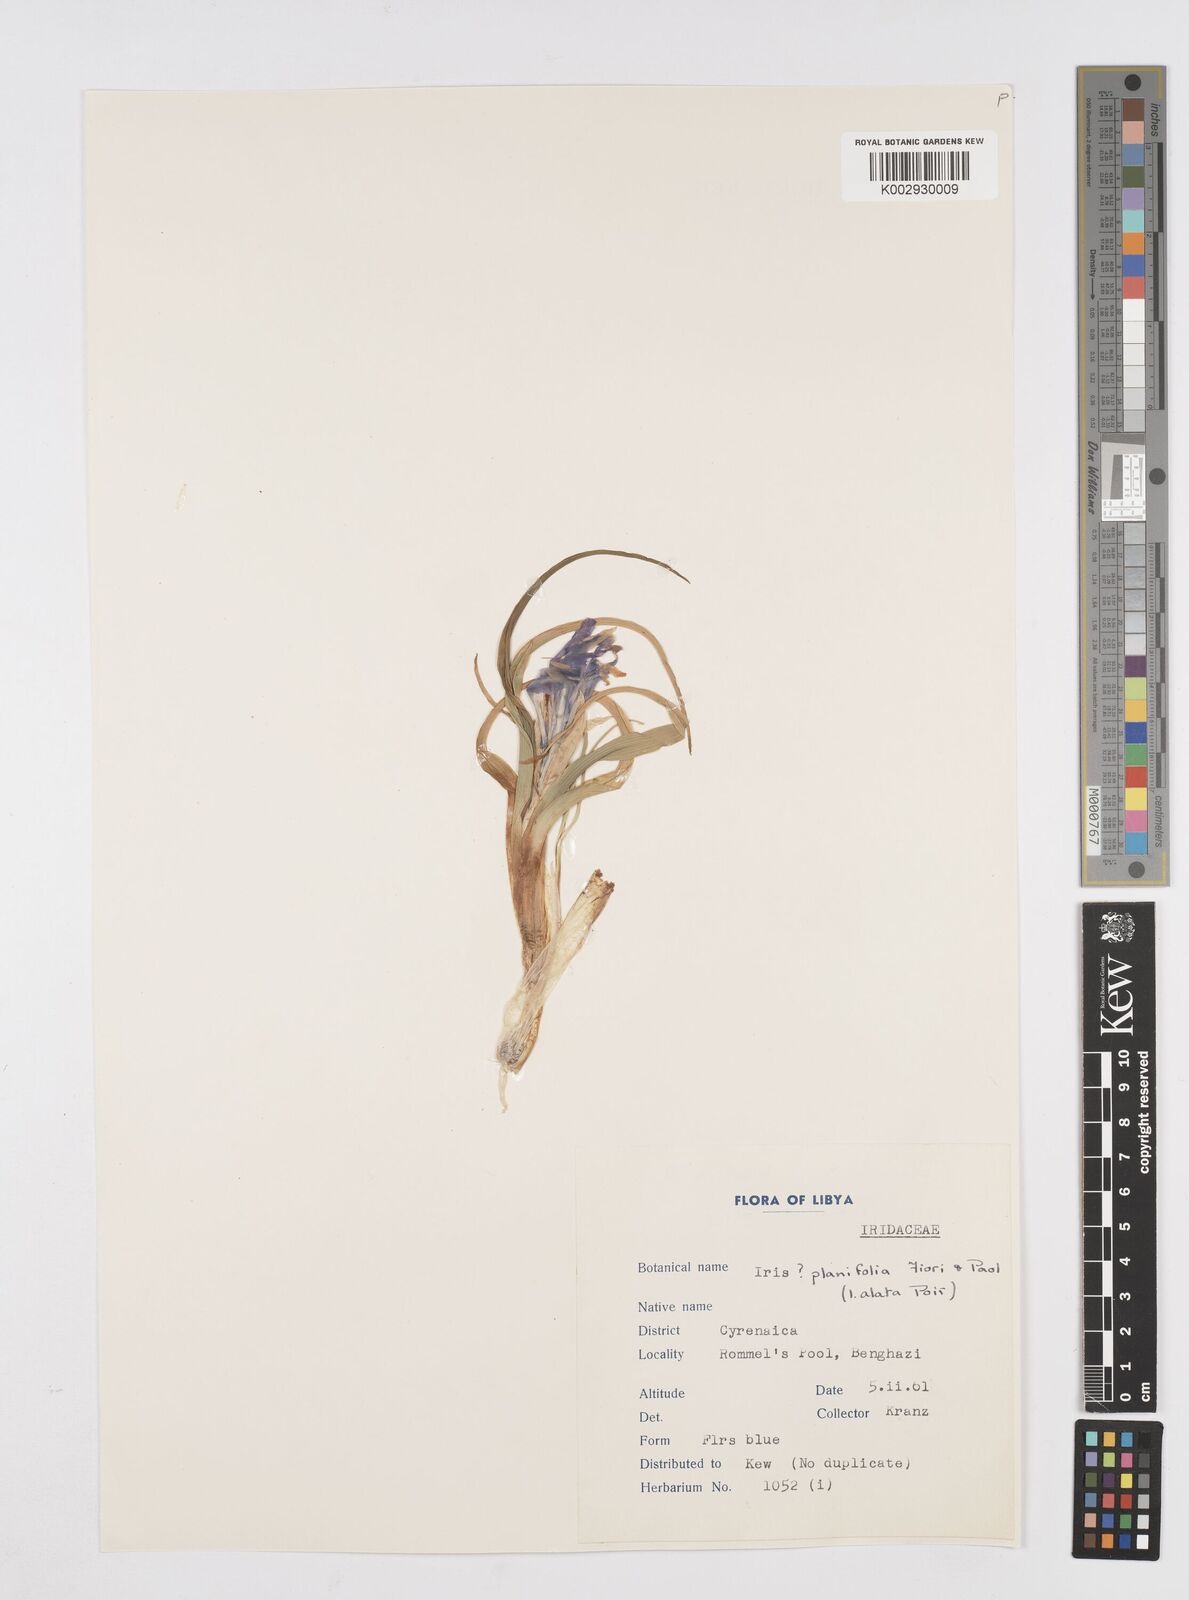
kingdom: Plantae
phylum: Tracheophyta
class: Liliopsida
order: Asparagales
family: Iridaceae
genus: Iris
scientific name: Iris planifolia
